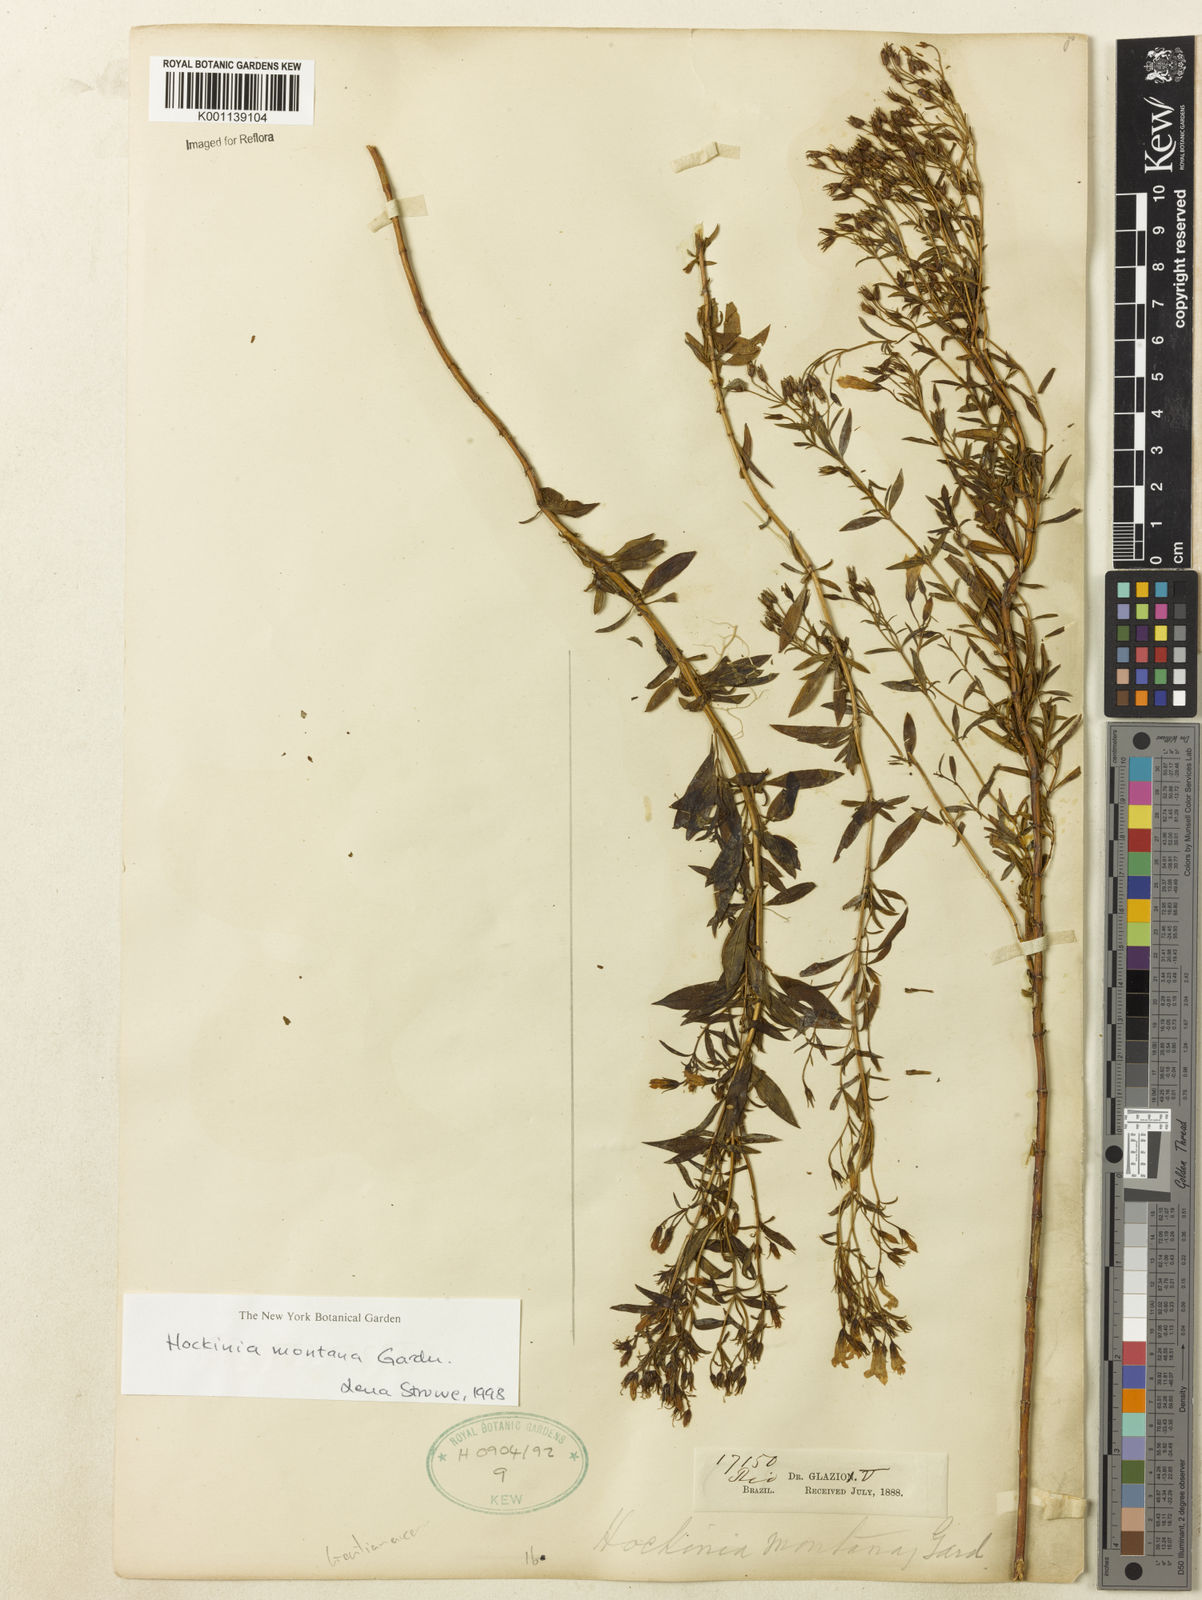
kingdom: Plantae
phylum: Tracheophyta
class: Magnoliopsida
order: Gentianales
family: Gentianaceae
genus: Hockinia
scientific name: Hockinia montana
